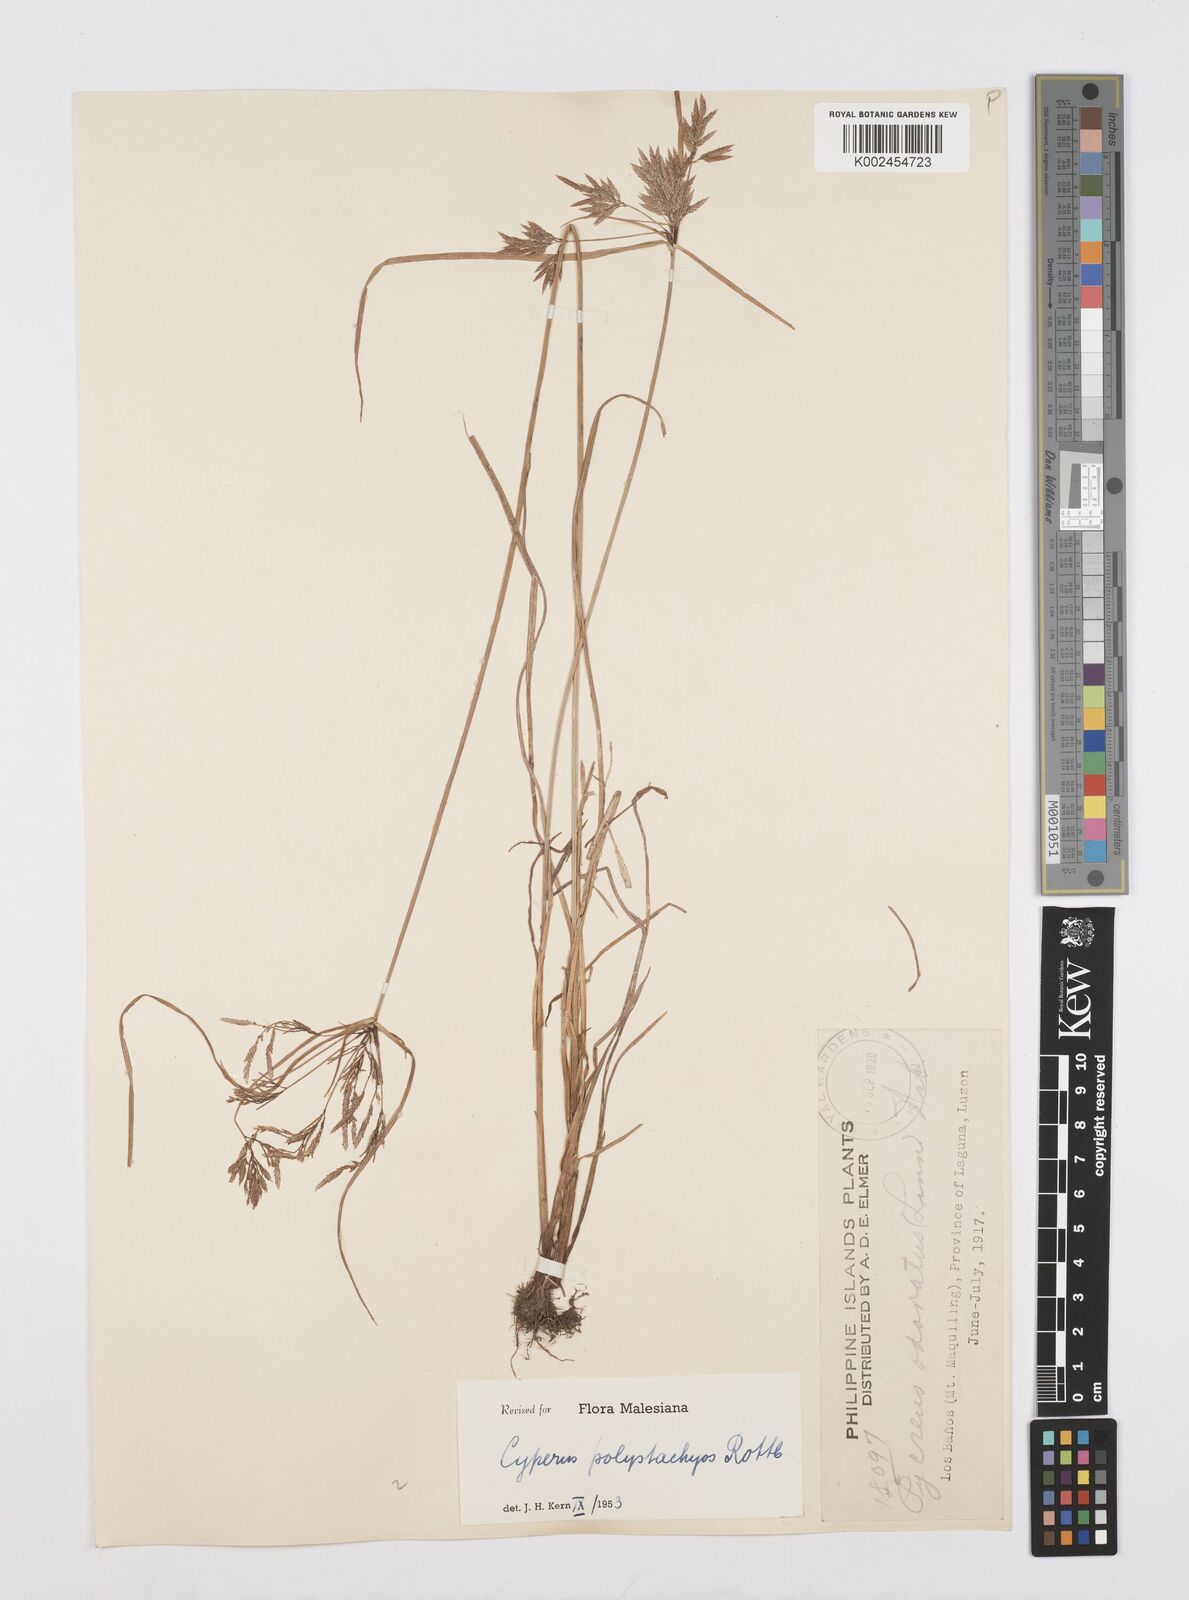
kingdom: Plantae
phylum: Tracheophyta
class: Liliopsida
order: Poales
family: Cyperaceae
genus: Cyperus
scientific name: Cyperus polystachyos
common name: Bunchy flat sedge
